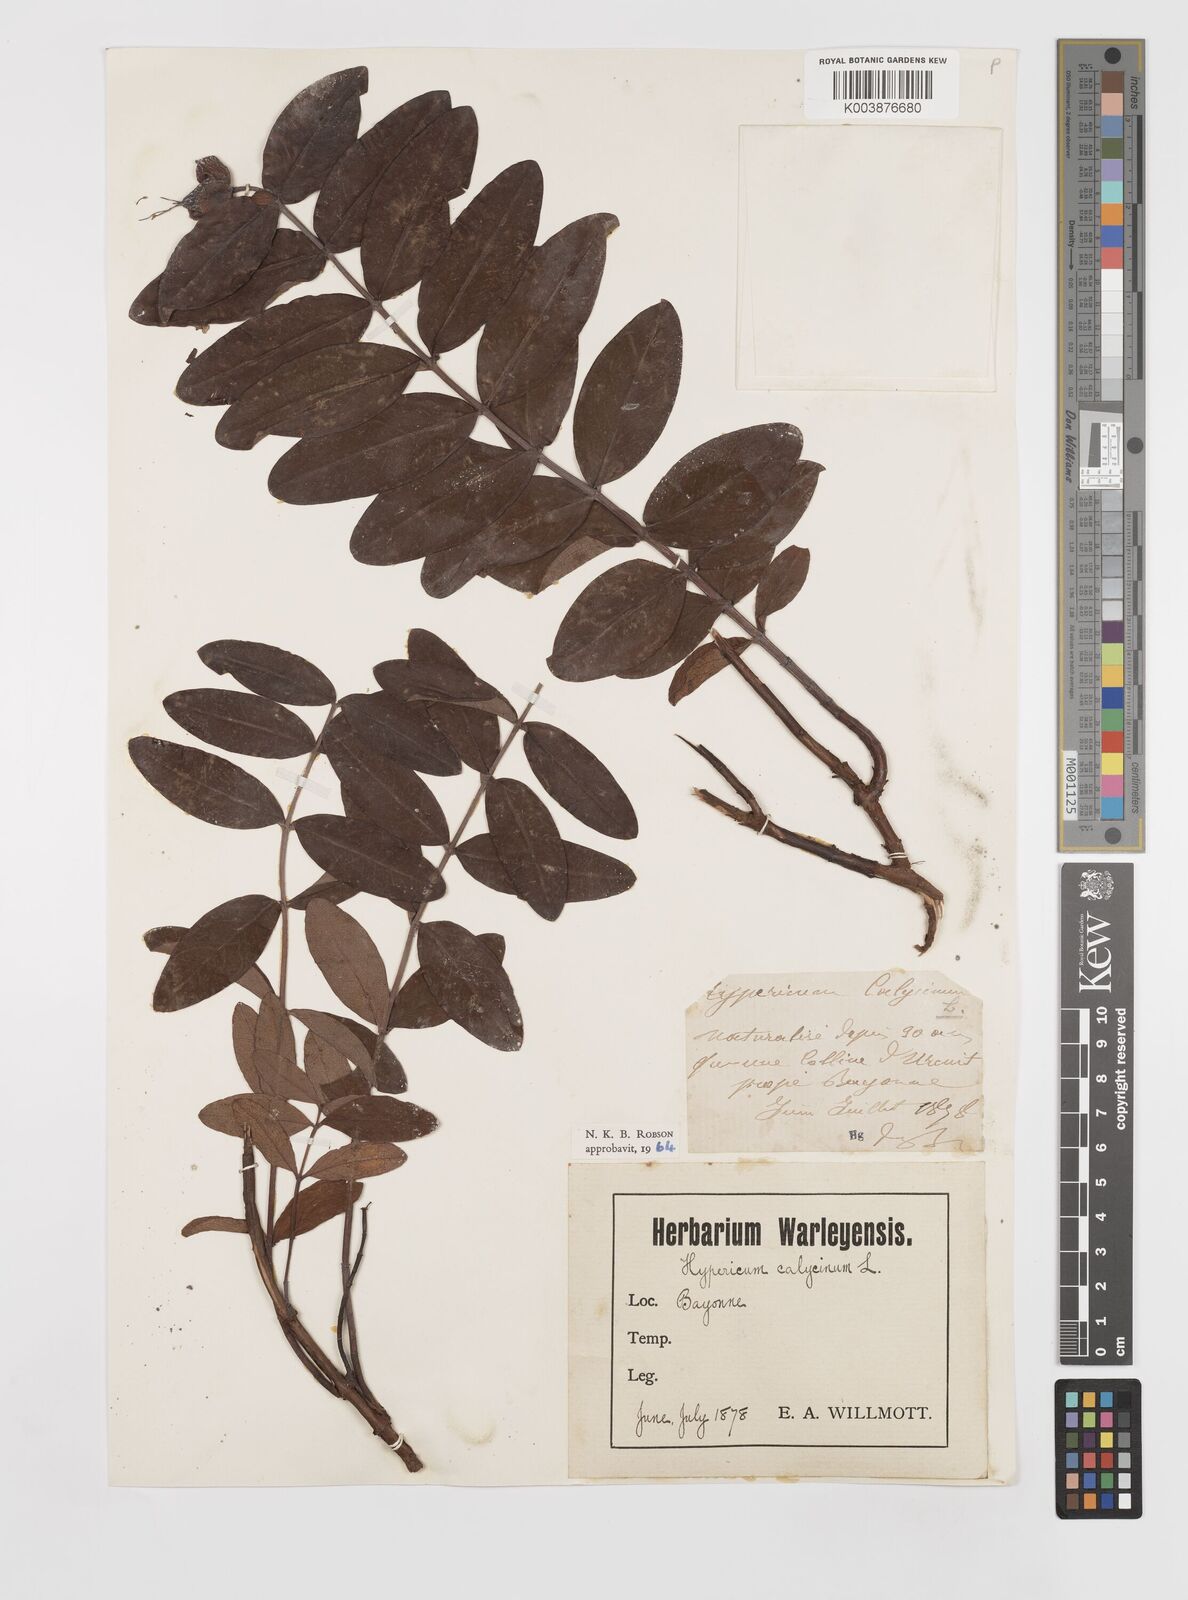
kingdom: Plantae
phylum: Tracheophyta
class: Magnoliopsida
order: Malpighiales
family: Hypericaceae
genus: Hypericum
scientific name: Hypericum calycinum
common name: Rose-of-sharon
